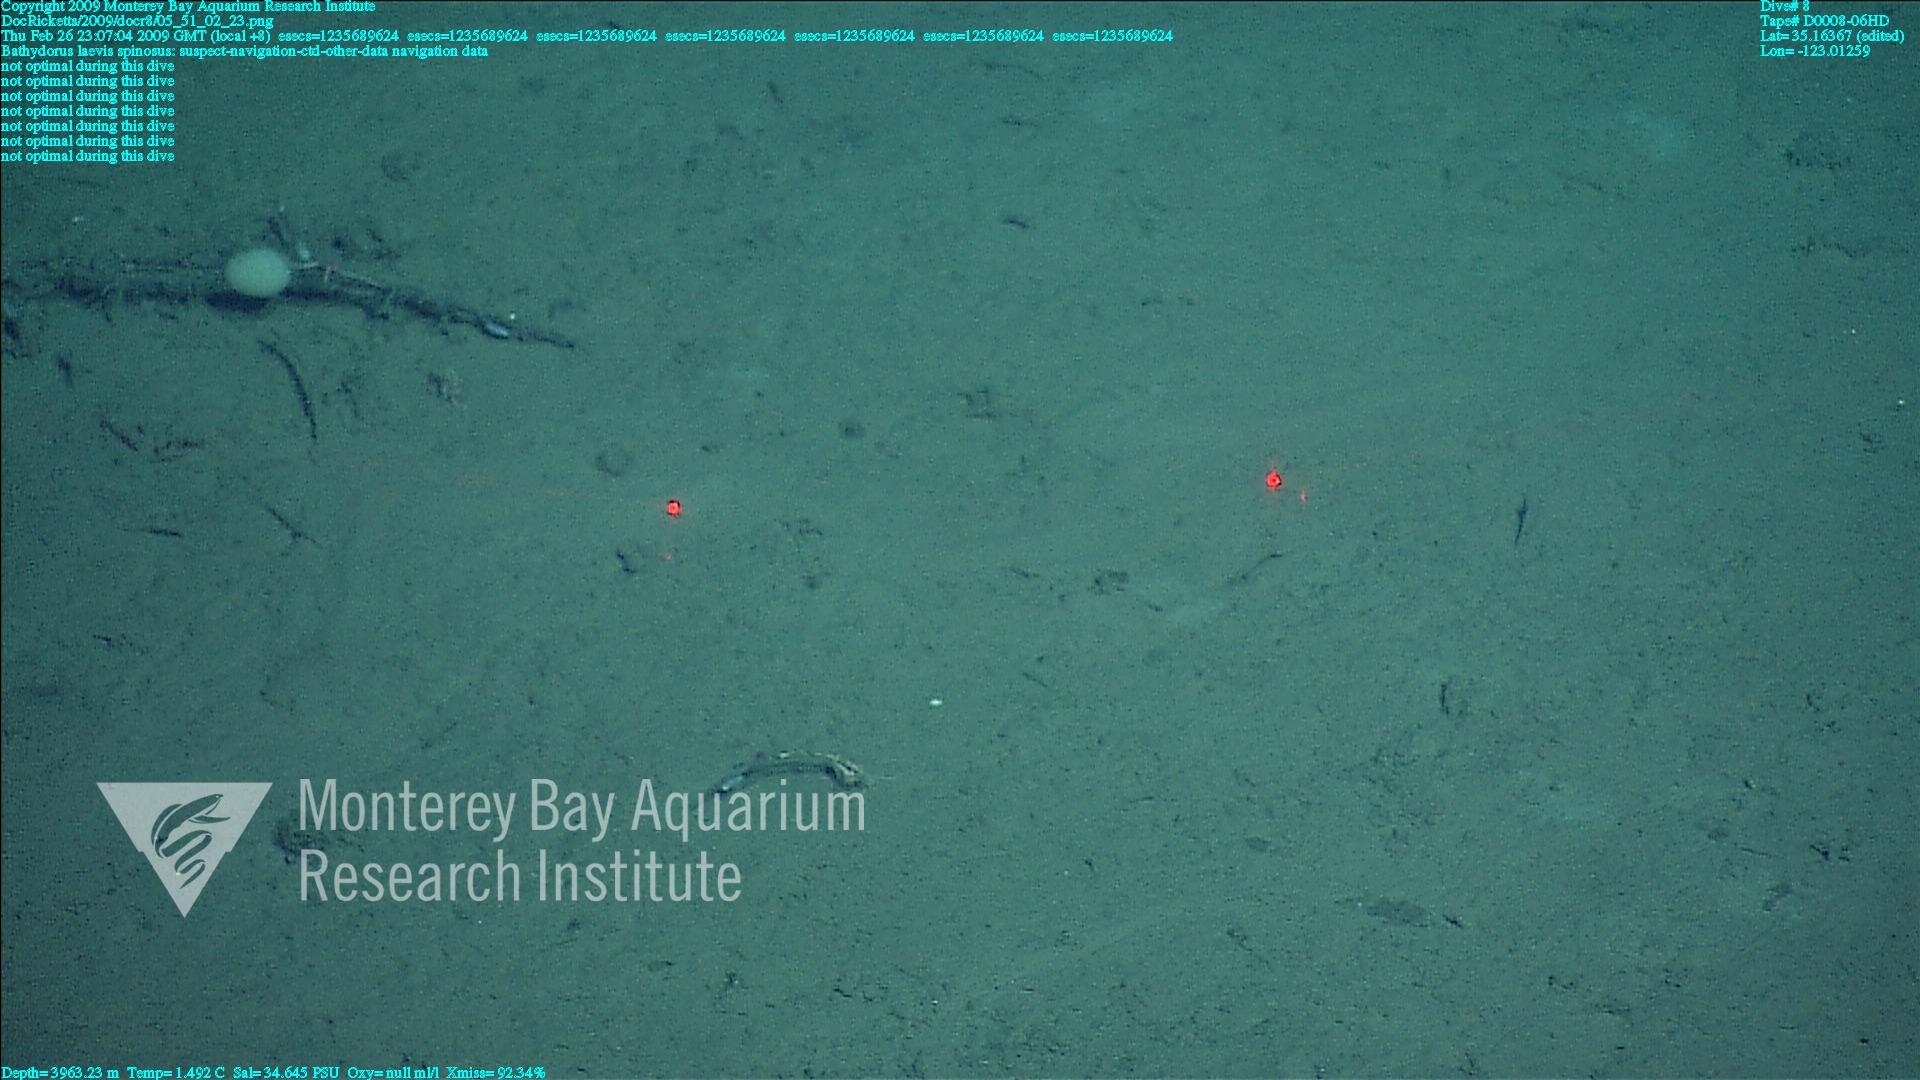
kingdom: Animalia
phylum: Porifera
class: Hexactinellida
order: Lyssacinosida
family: Rossellidae
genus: Bathydorus
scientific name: Bathydorus spinosus
